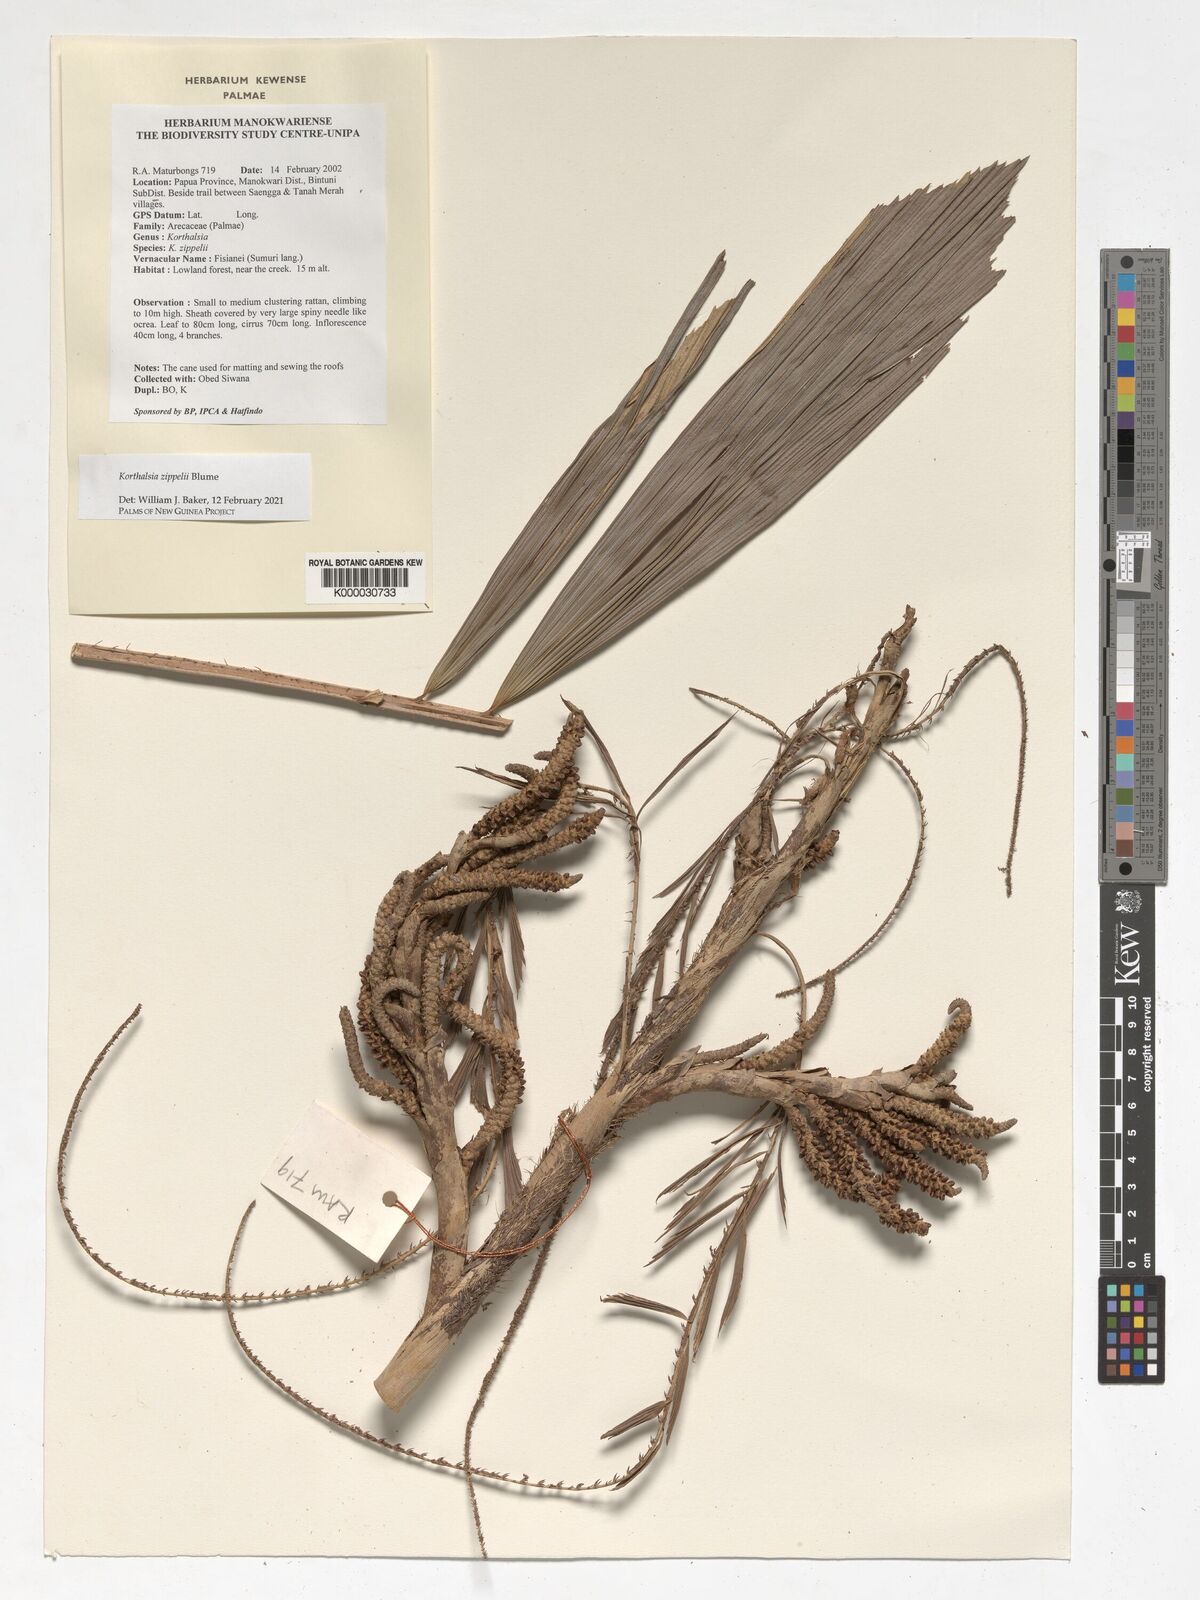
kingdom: Plantae
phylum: Tracheophyta
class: Liliopsida
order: Arecales
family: Arecaceae
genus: Korthalsia
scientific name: Korthalsia zippelii
